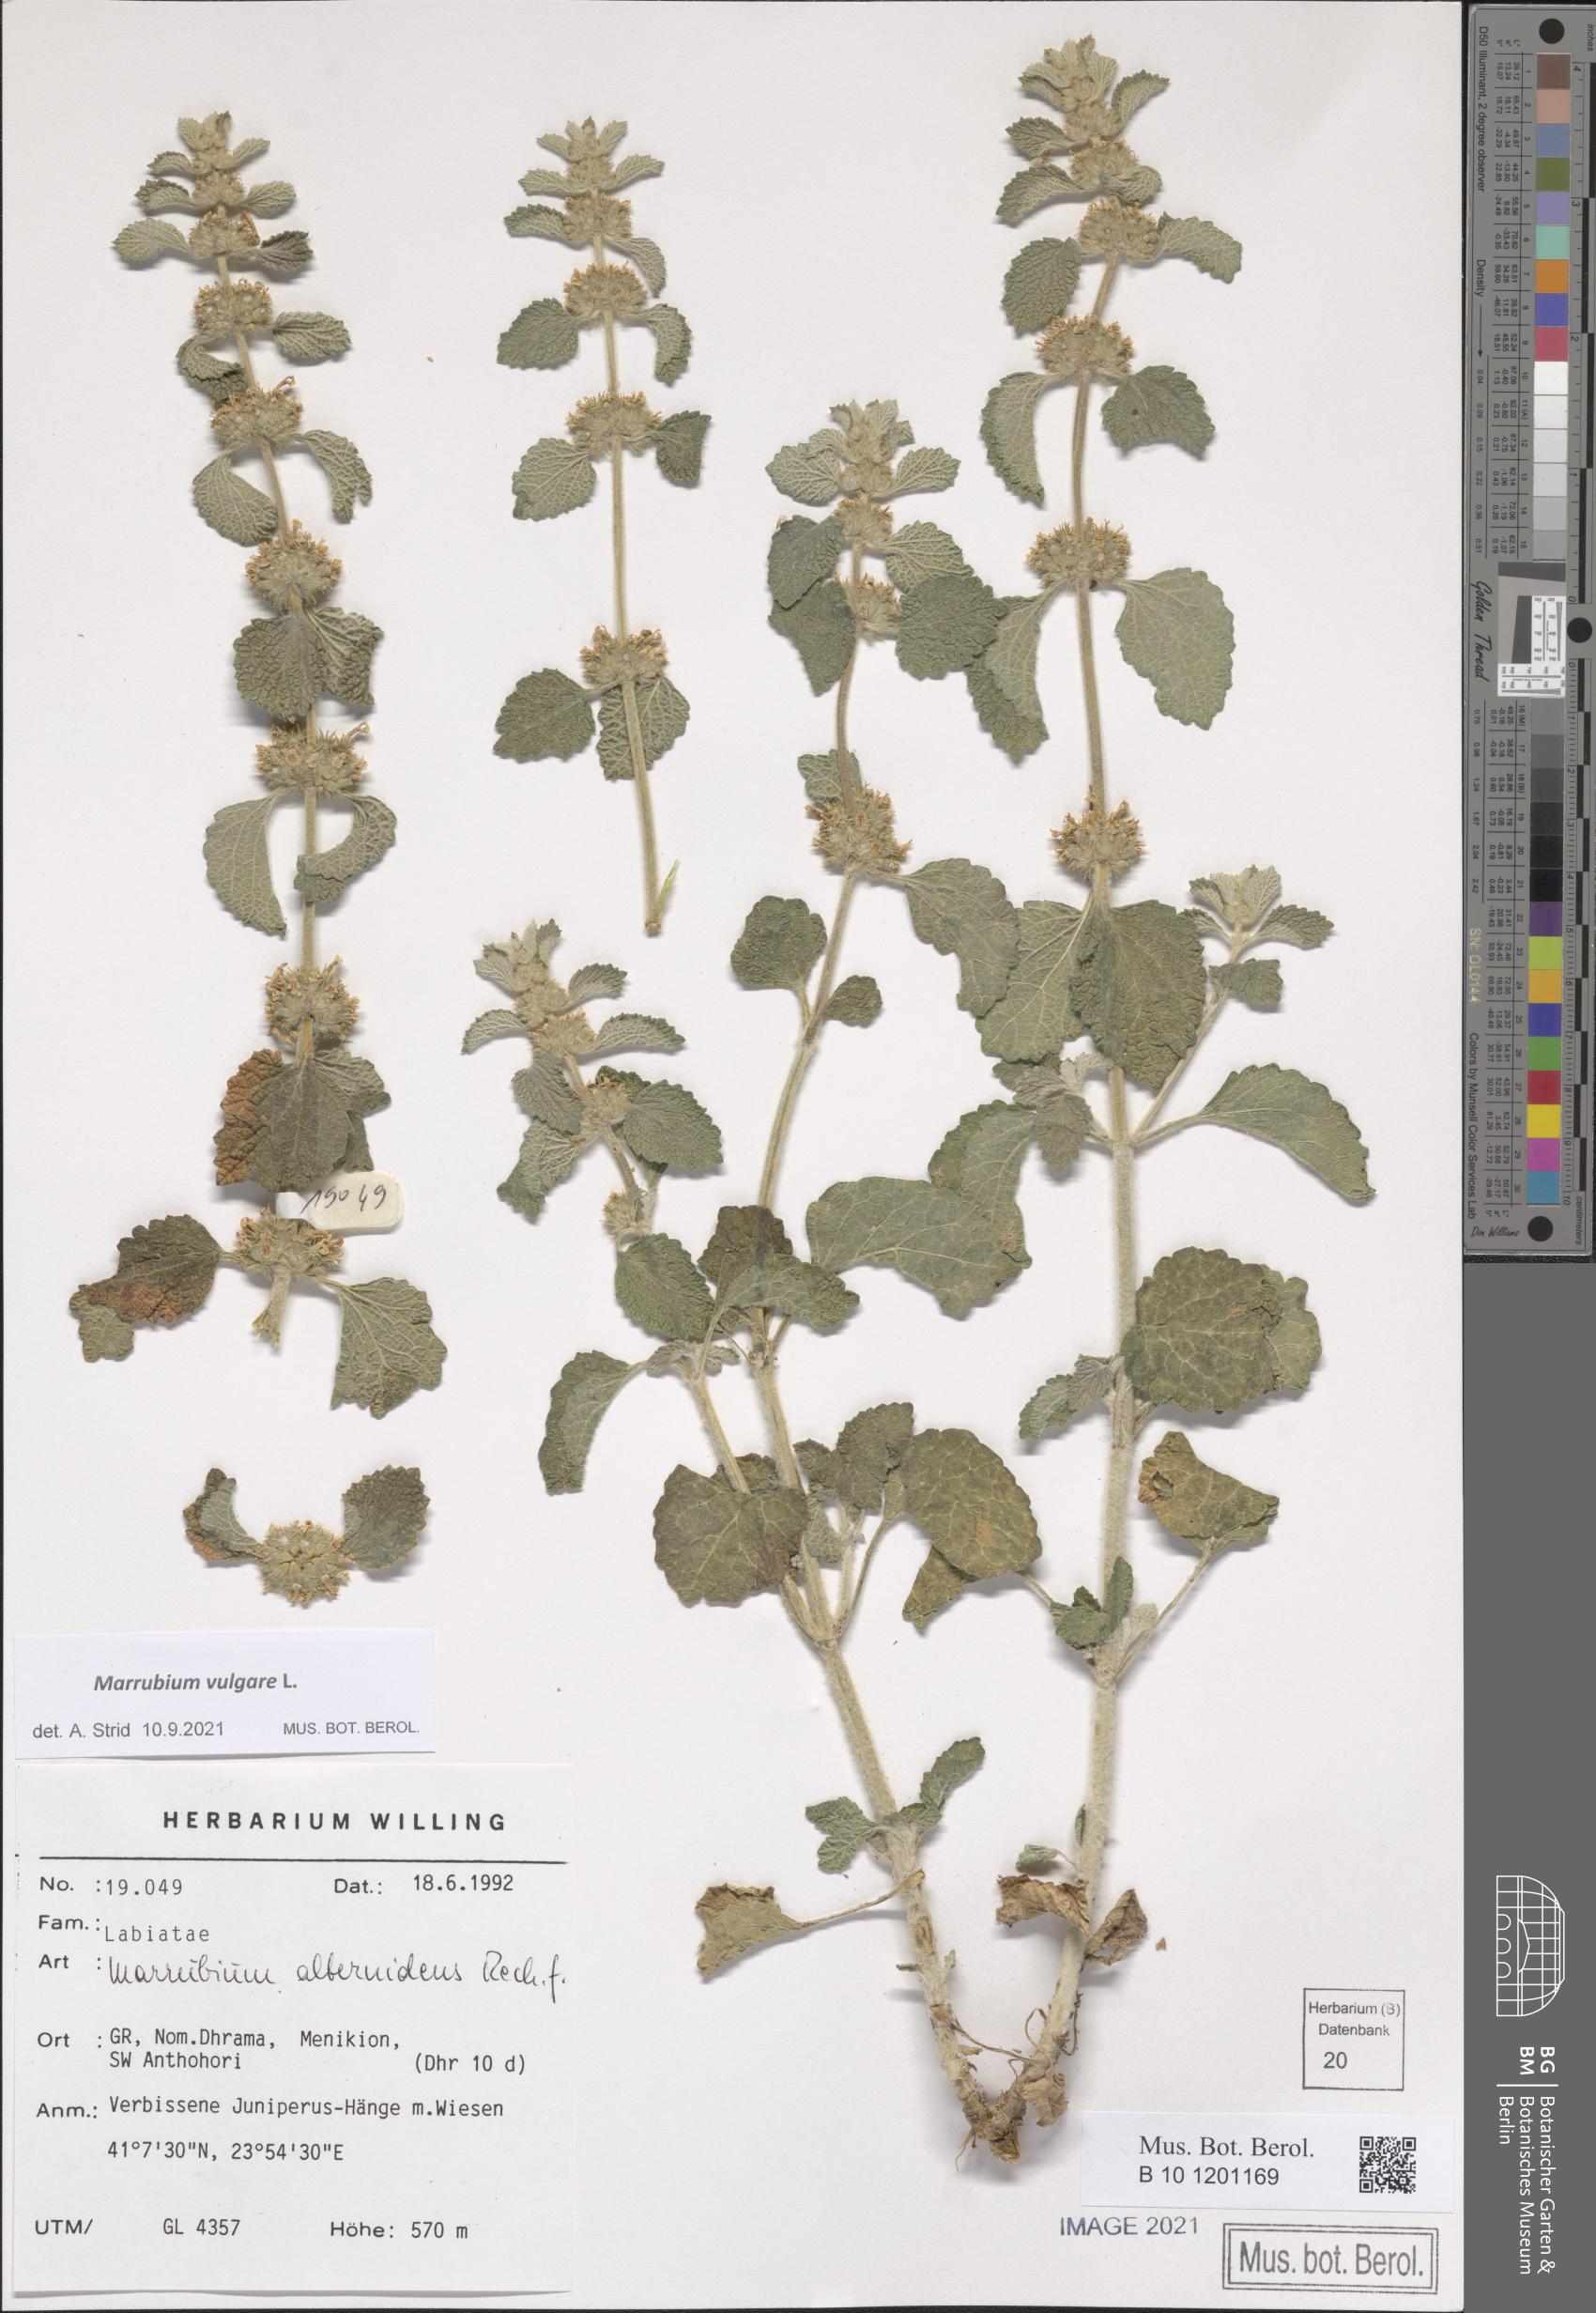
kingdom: Plantae
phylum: Tracheophyta
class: Magnoliopsida
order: Lamiales
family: Lamiaceae
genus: Marrubium
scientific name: Marrubium vulgare
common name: Horehound
